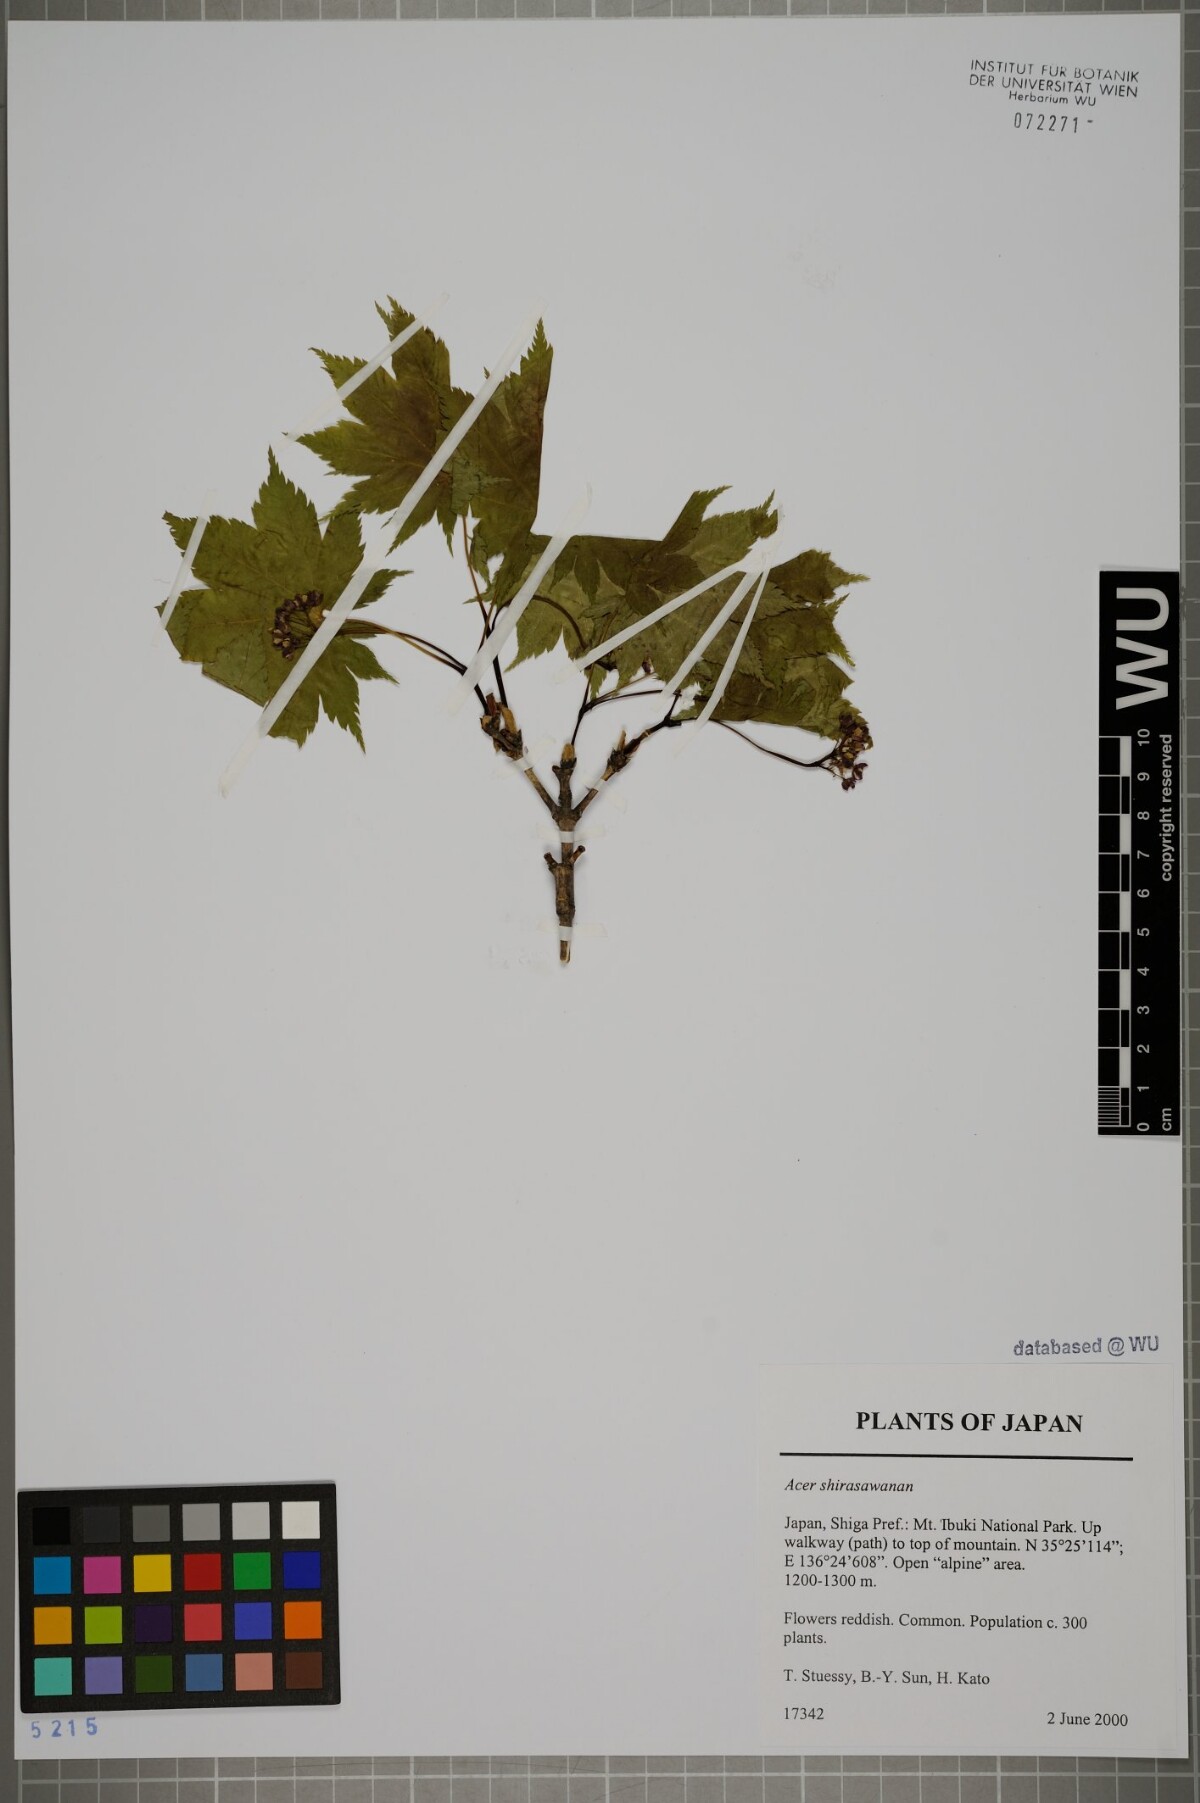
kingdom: Plantae
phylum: Tracheophyta
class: Magnoliopsida
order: Sapindales
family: Sapindaceae
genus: Acer
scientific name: Acer shirasawanum
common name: Full moon maple
